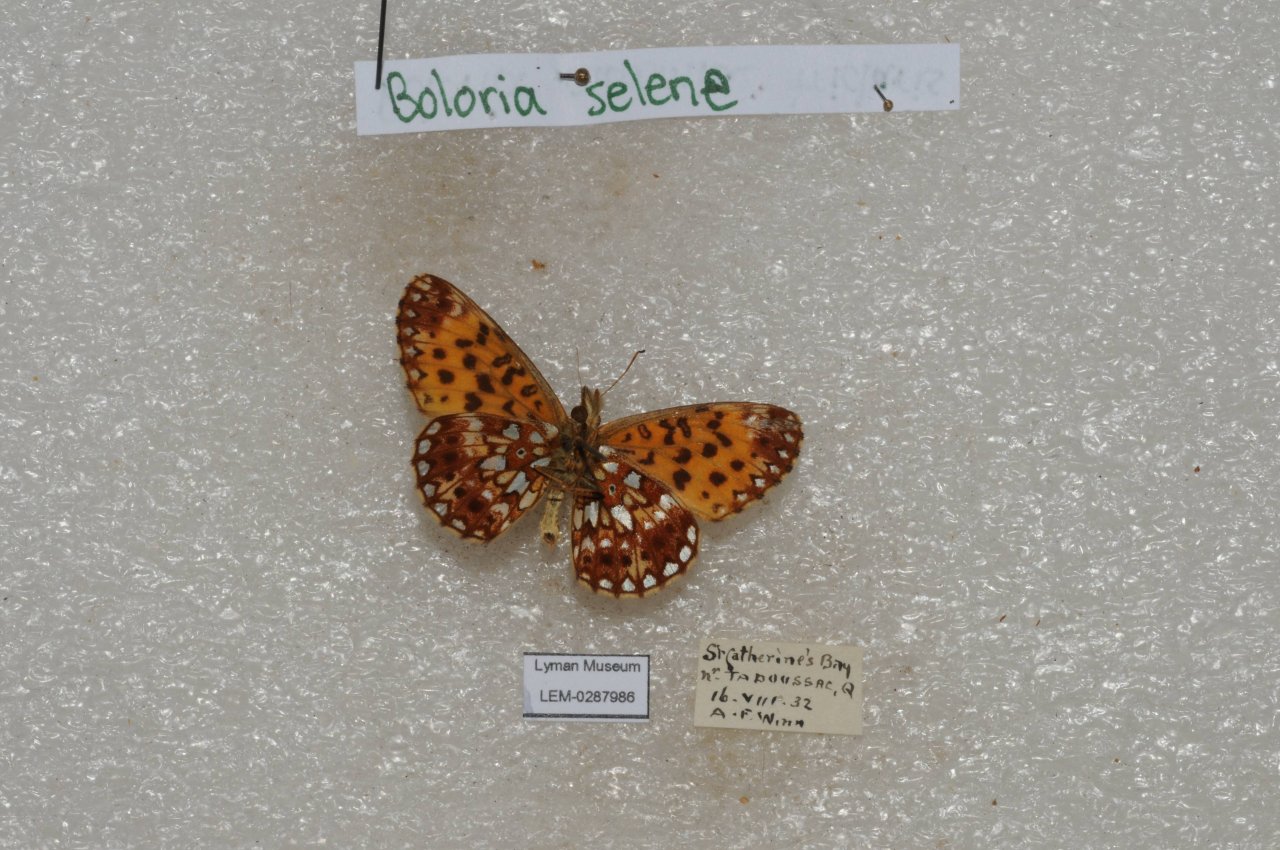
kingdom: Animalia
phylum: Arthropoda
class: Insecta
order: Lepidoptera
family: Nymphalidae
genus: Boloria
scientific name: Boloria selene
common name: Silver-bordered Fritillary
